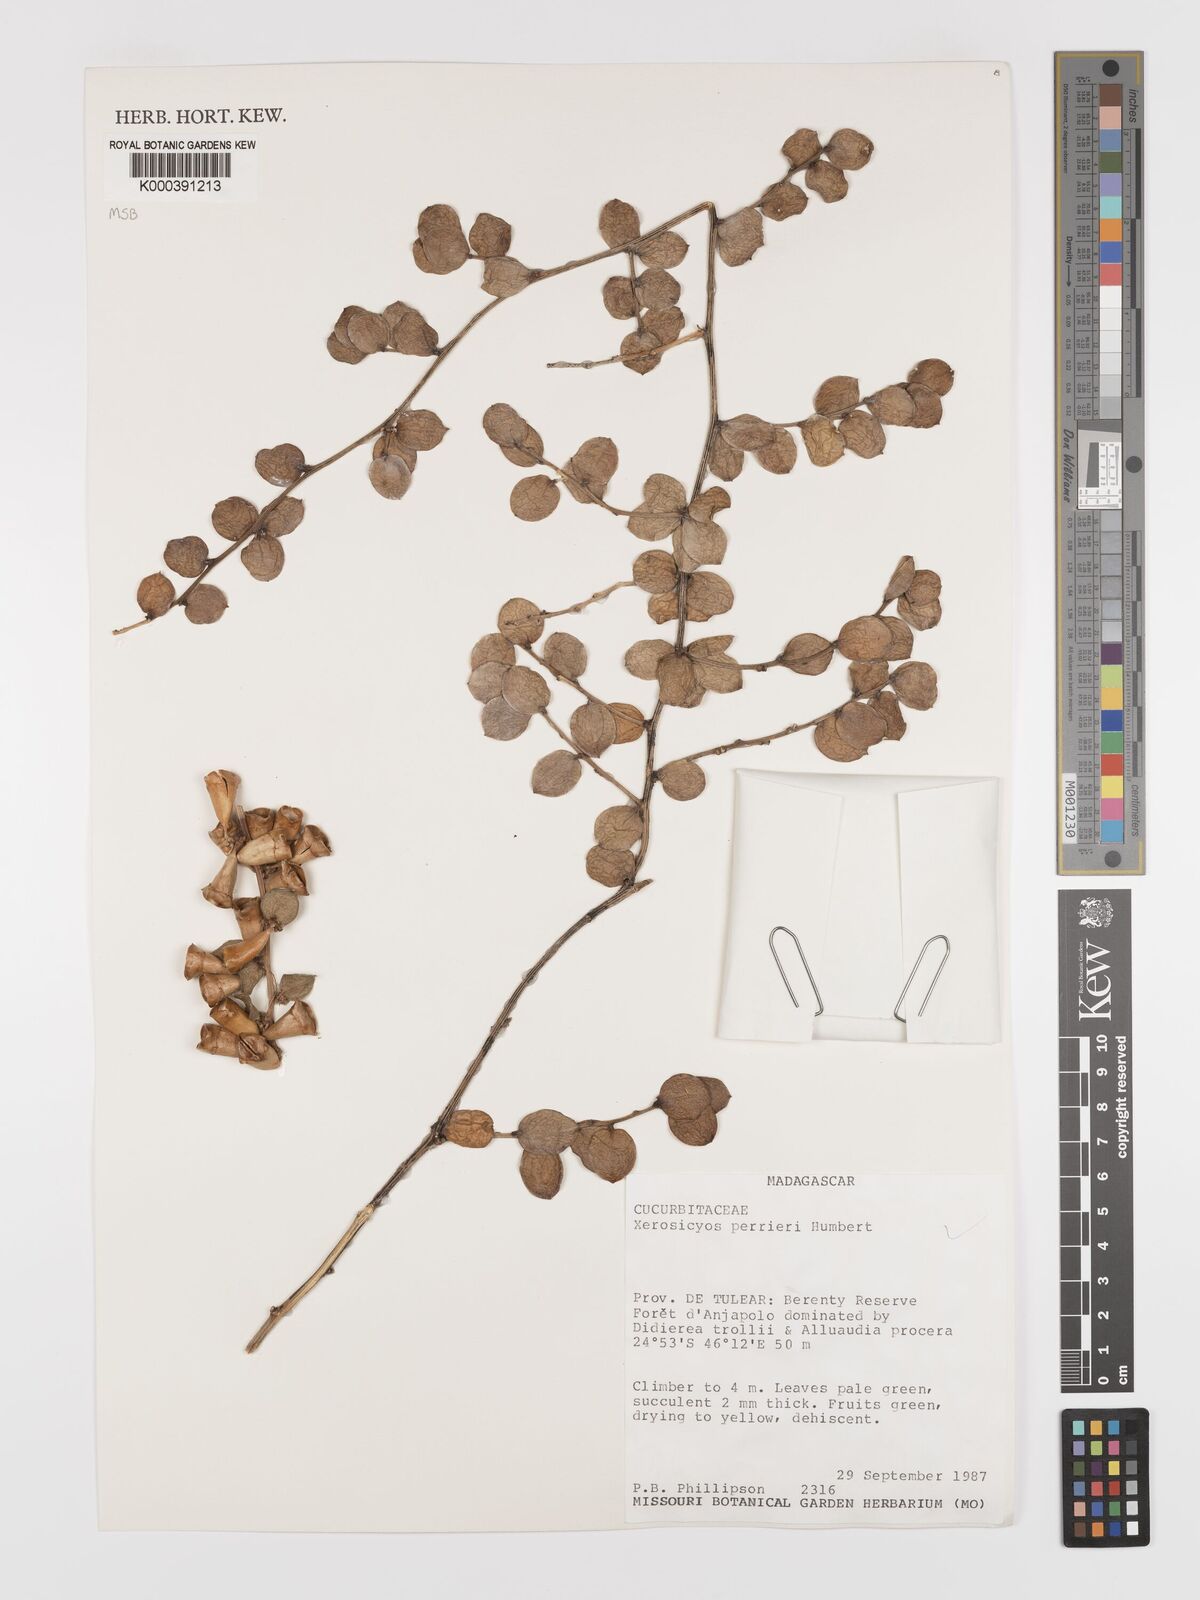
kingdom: Plantae
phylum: Tracheophyta
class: Magnoliopsida
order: Cucurbitales
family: Cucurbitaceae
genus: Xerosicyos
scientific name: Xerosicyos perrieri
